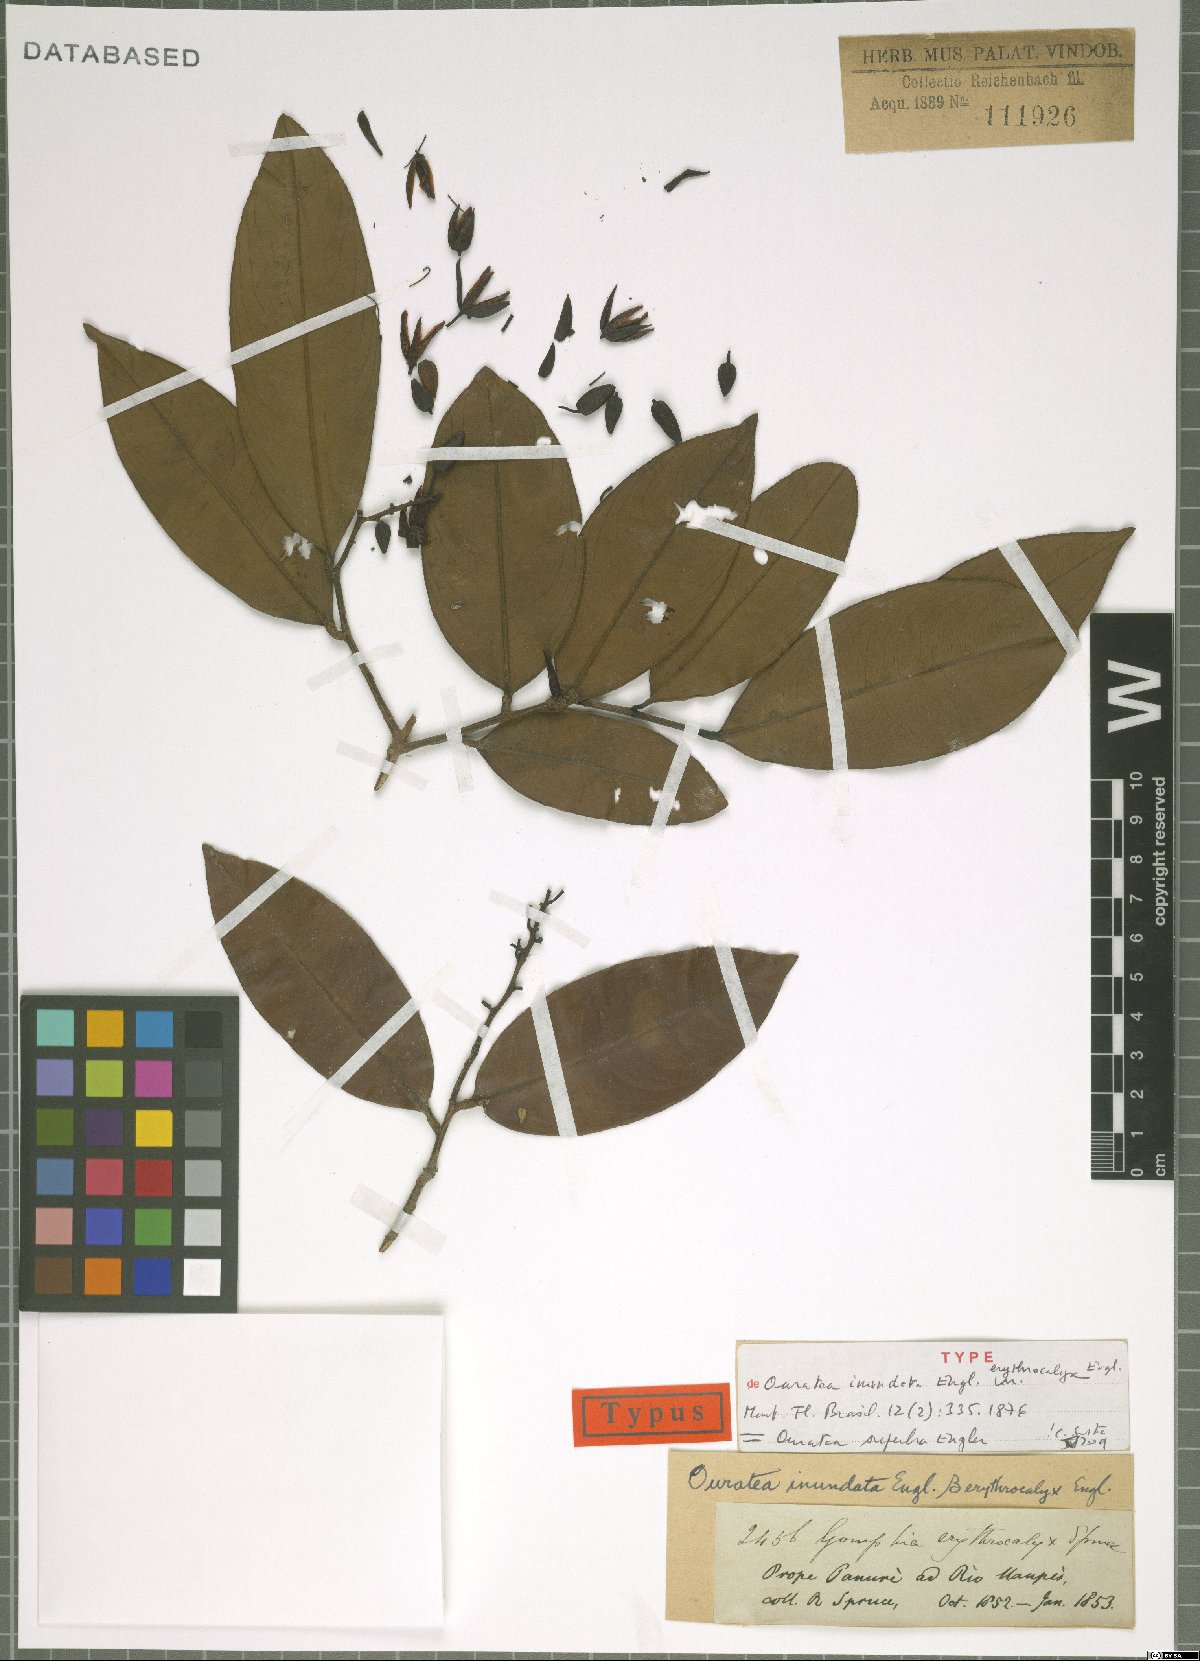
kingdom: Plantae
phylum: Tracheophyta
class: Magnoliopsida
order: Malpighiales
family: Ochnaceae
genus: Ouratea
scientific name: Ouratea superba
